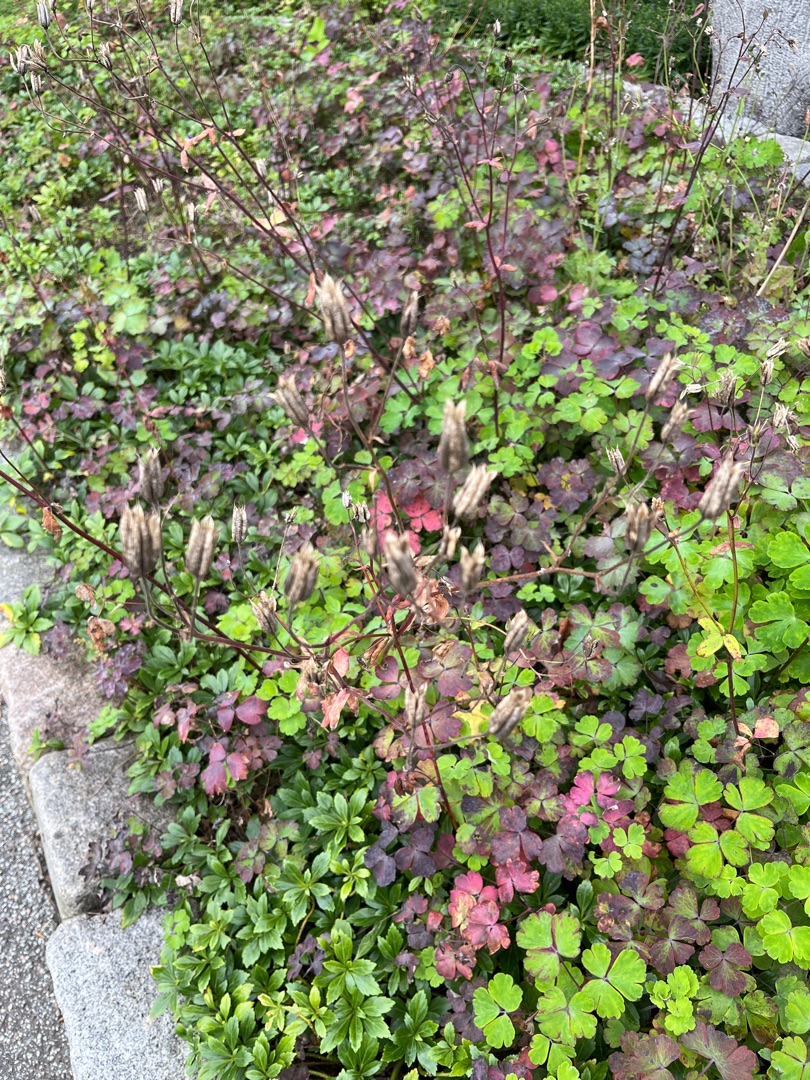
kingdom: Plantae
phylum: Tracheophyta
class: Magnoliopsida
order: Ranunculales
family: Ranunculaceae
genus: Aquilegia
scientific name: Aquilegia vulgaris
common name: Akeleje
